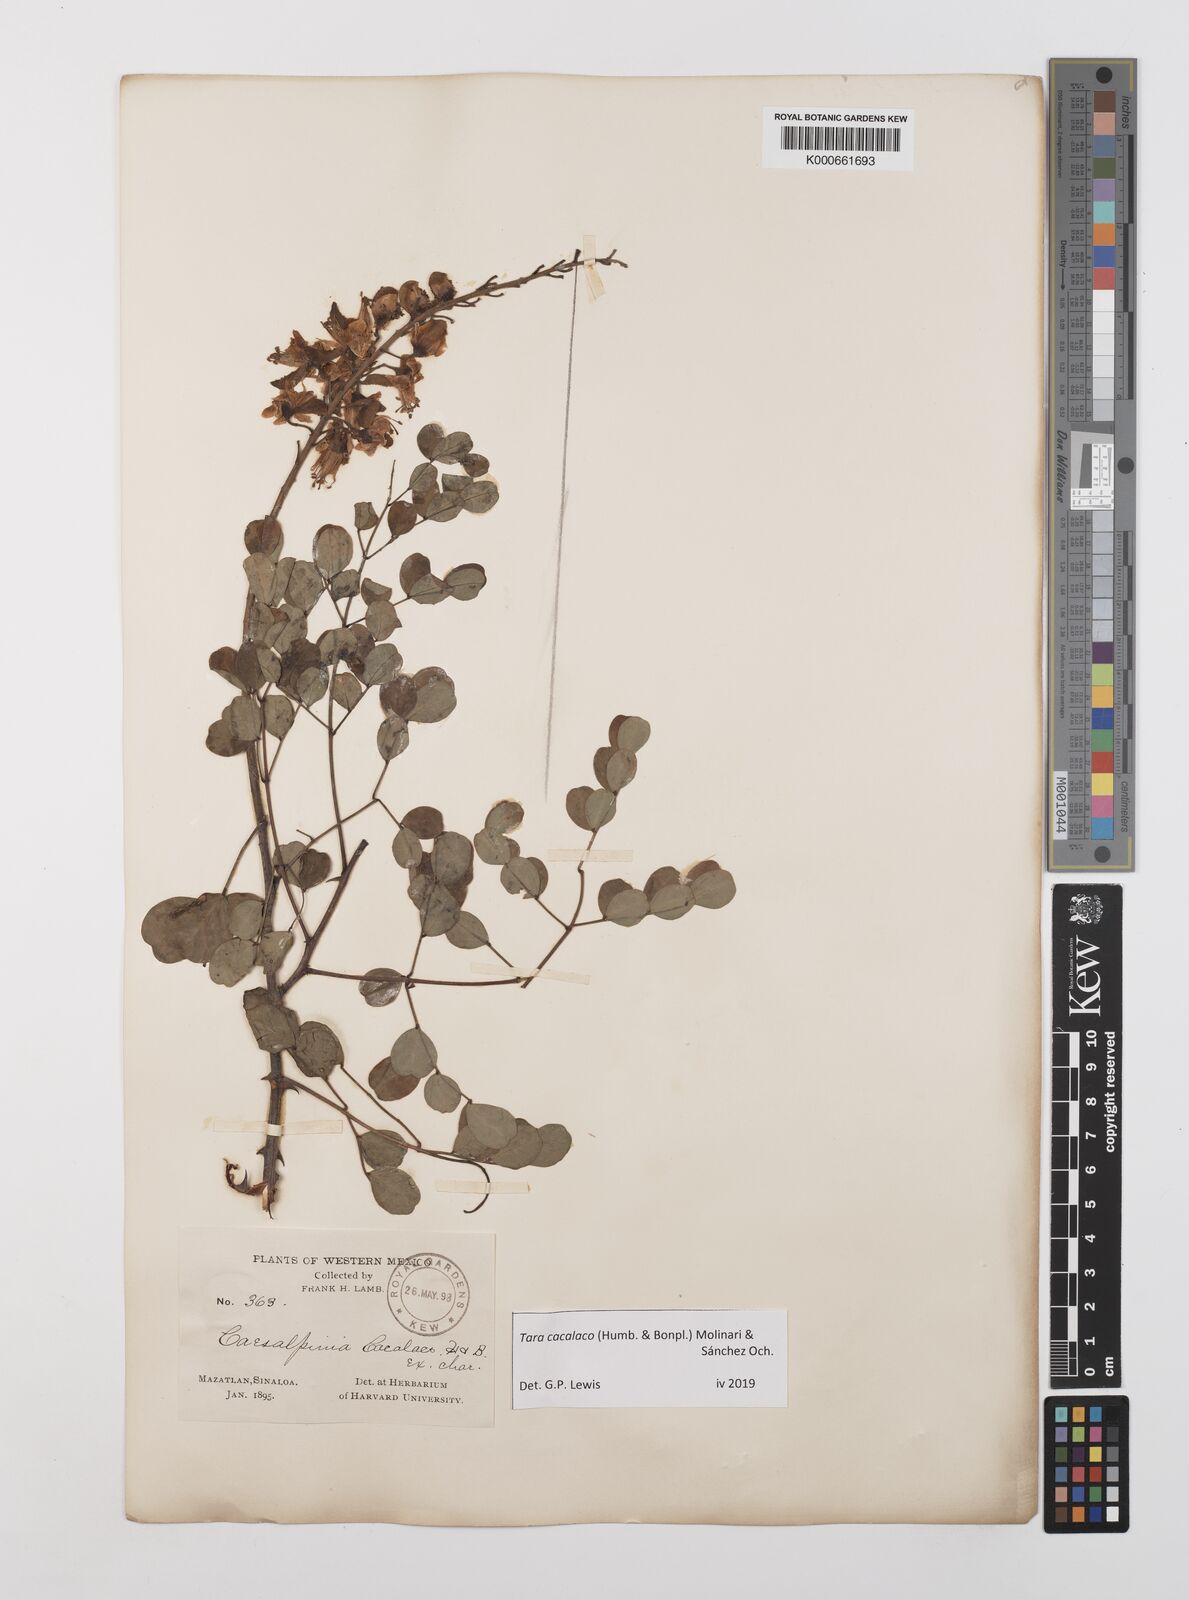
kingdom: Plantae
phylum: Tracheophyta
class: Magnoliopsida
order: Fabales
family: Fabaceae
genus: Tara
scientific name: Tara cacalaco
